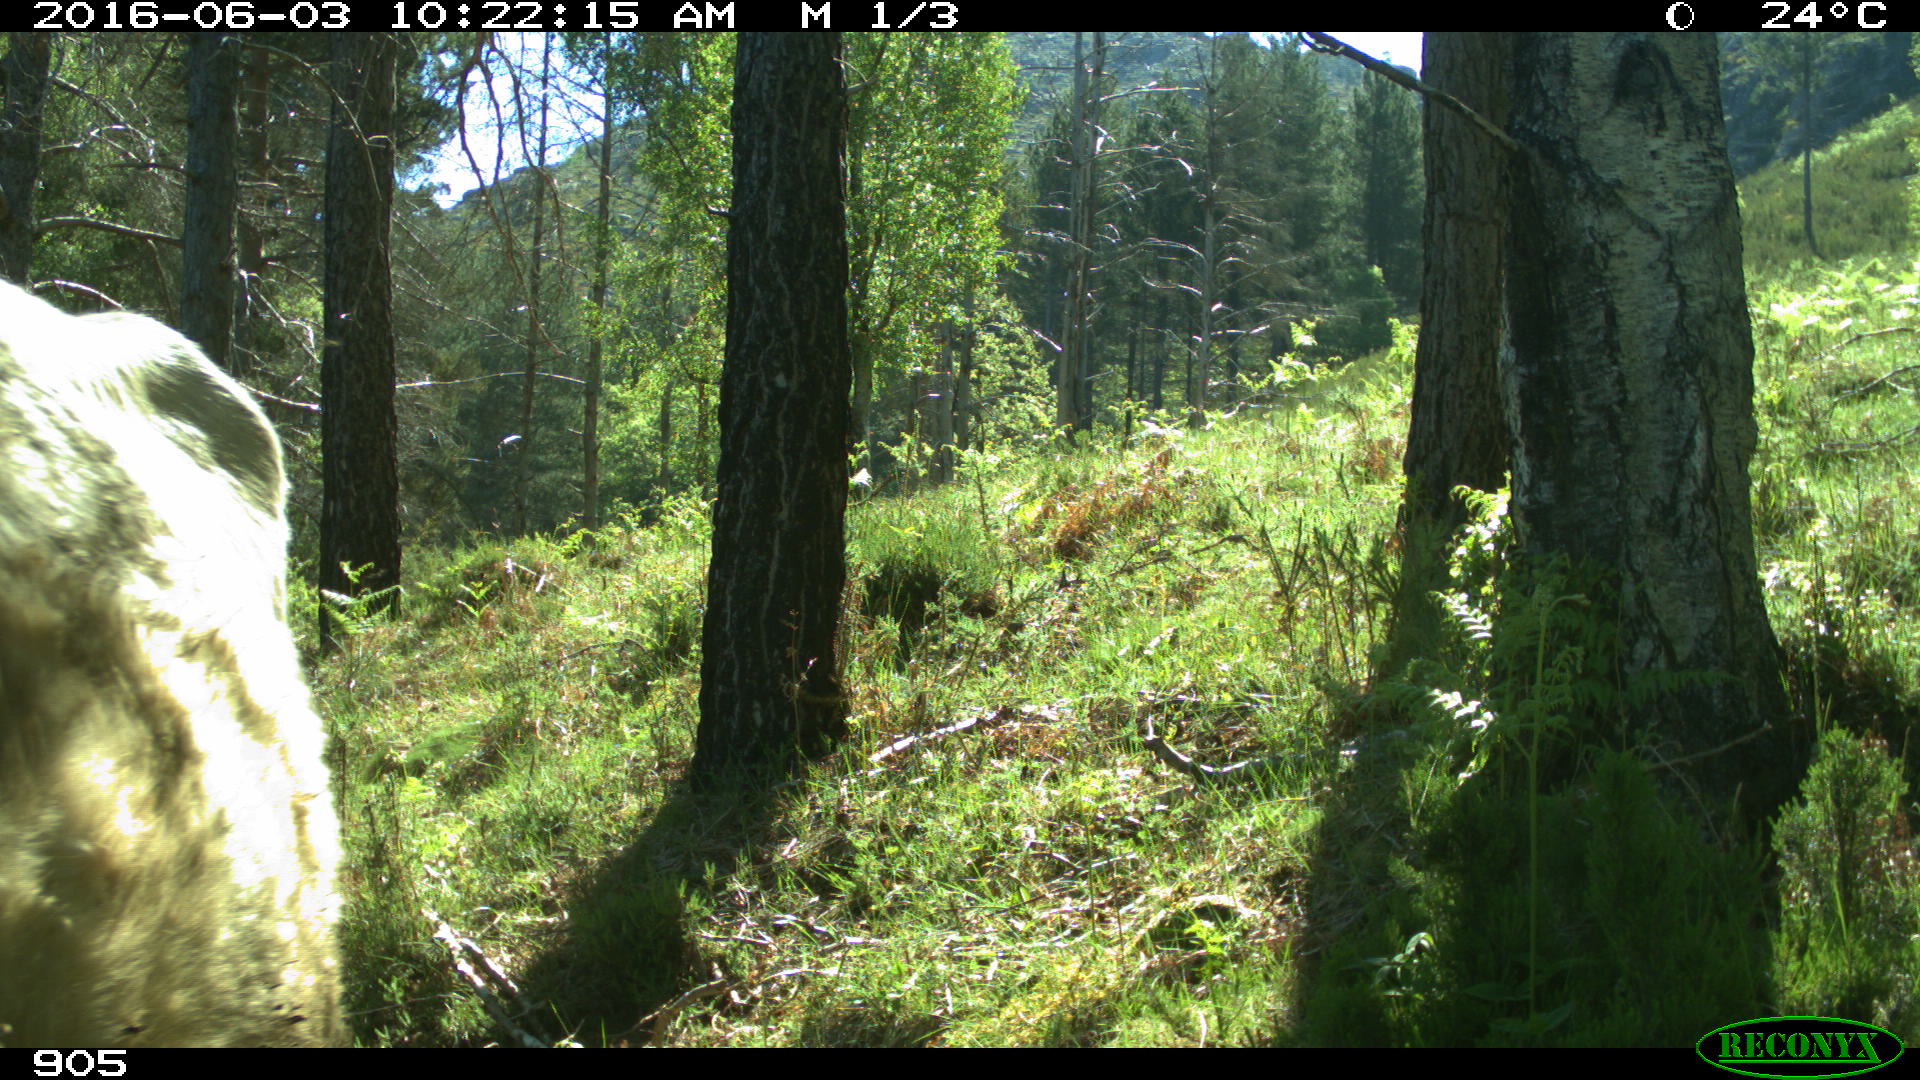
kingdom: Animalia
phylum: Chordata
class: Mammalia
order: Artiodactyla
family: Bovidae
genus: Bos
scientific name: Bos taurus
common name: Domesticated cattle
